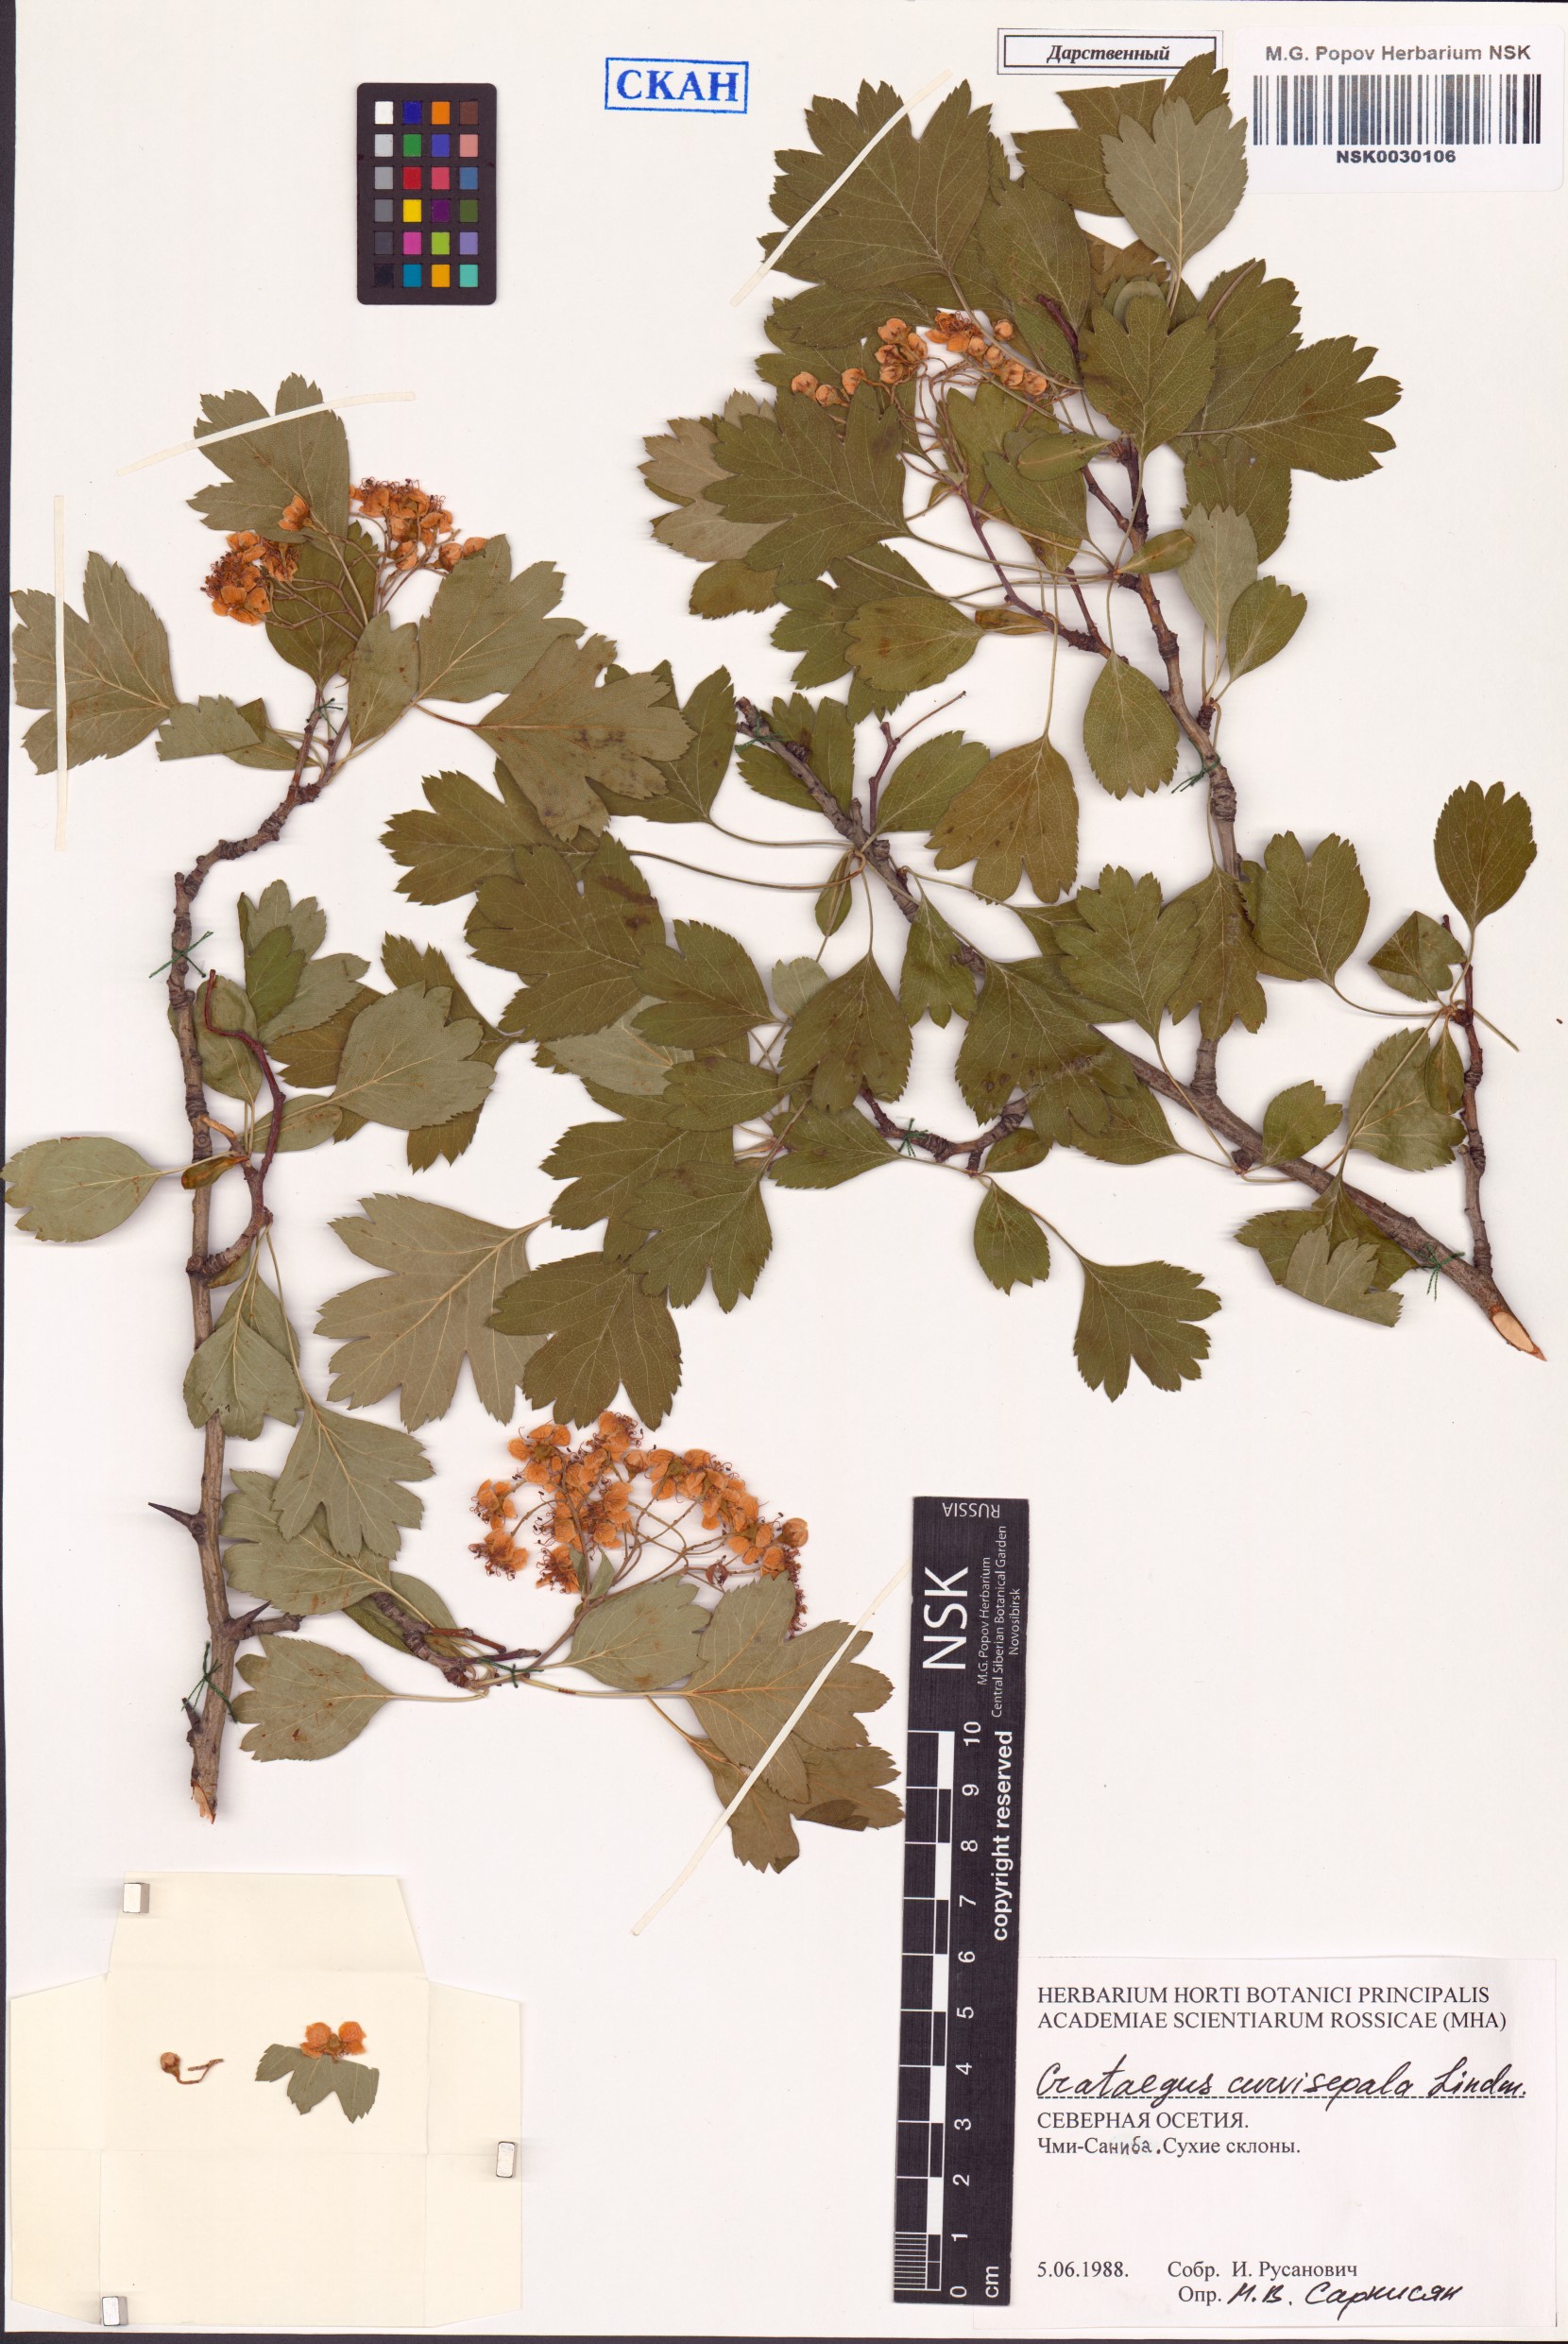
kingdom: Plantae
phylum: Tracheophyta
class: Magnoliopsida
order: Rosales
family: Rosaceae
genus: Crataegus
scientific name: Crataegus praemonticola
